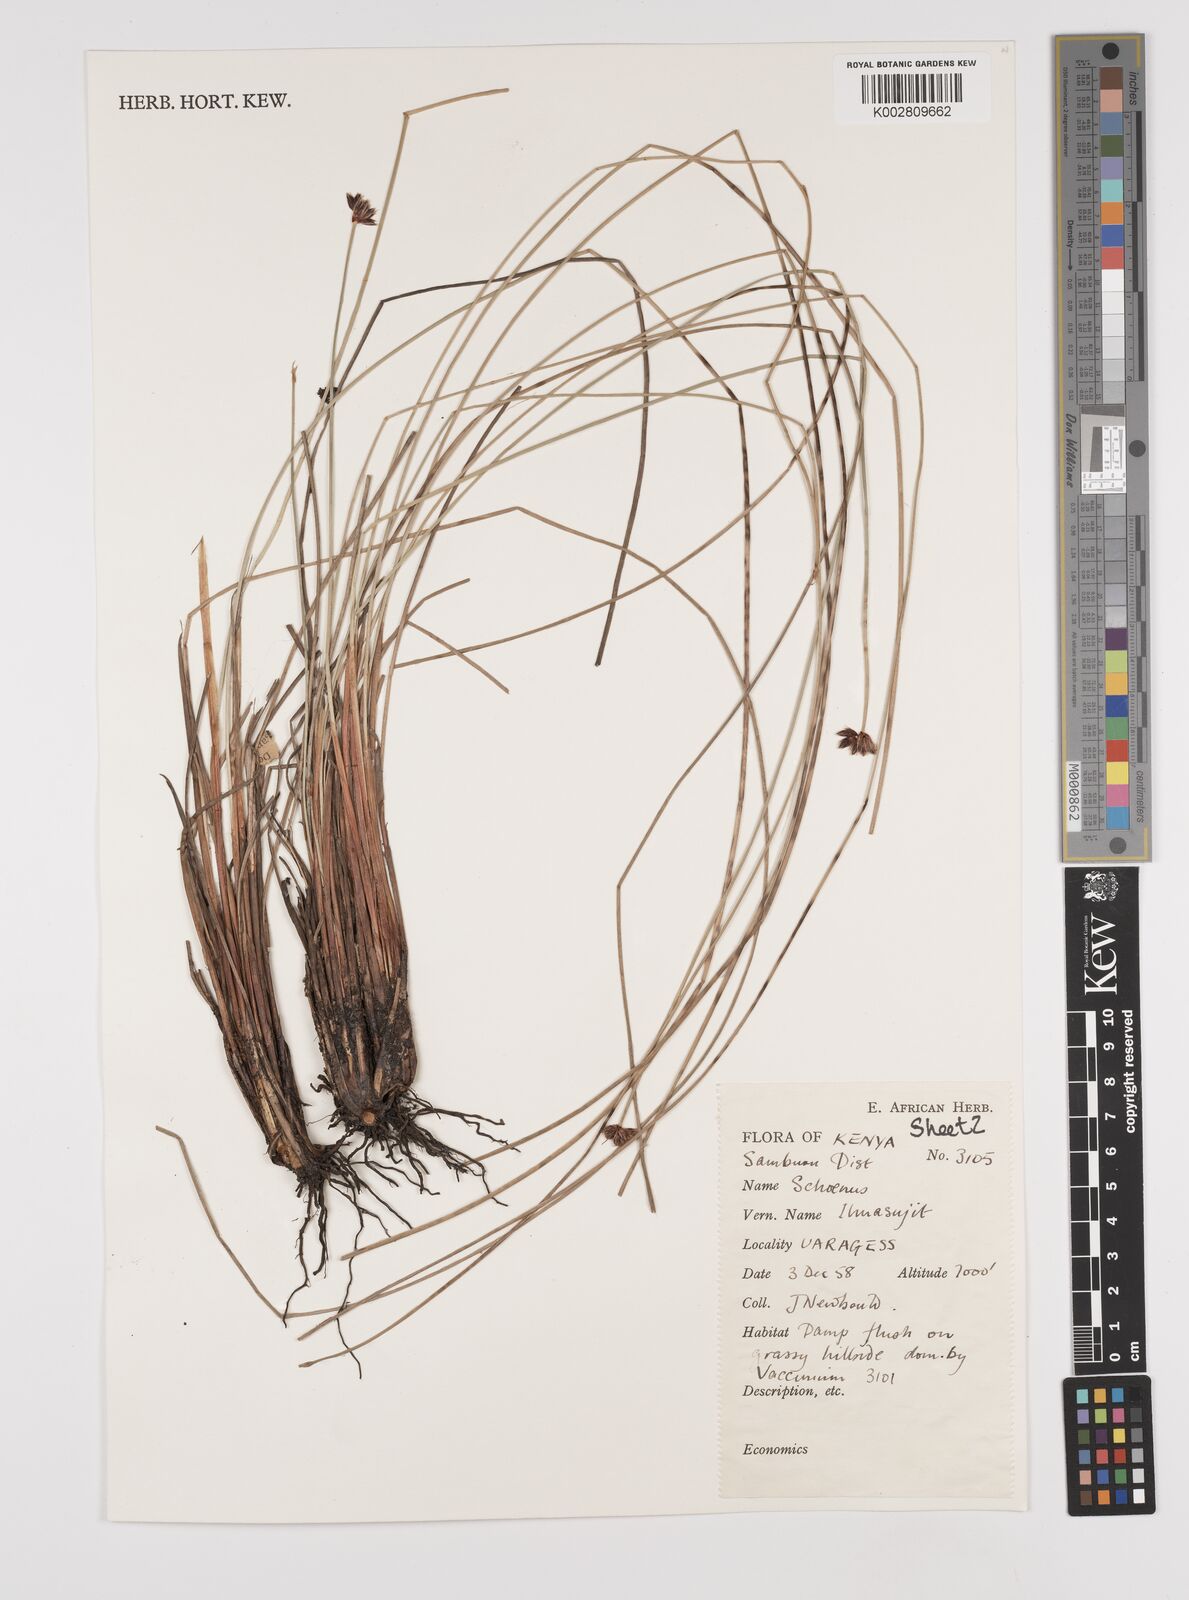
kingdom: Plantae
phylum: Tracheophyta
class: Liliopsida
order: Poales
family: Cyperaceae
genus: Schoenus
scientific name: Schoenus nigricans
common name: Black bog-rush
